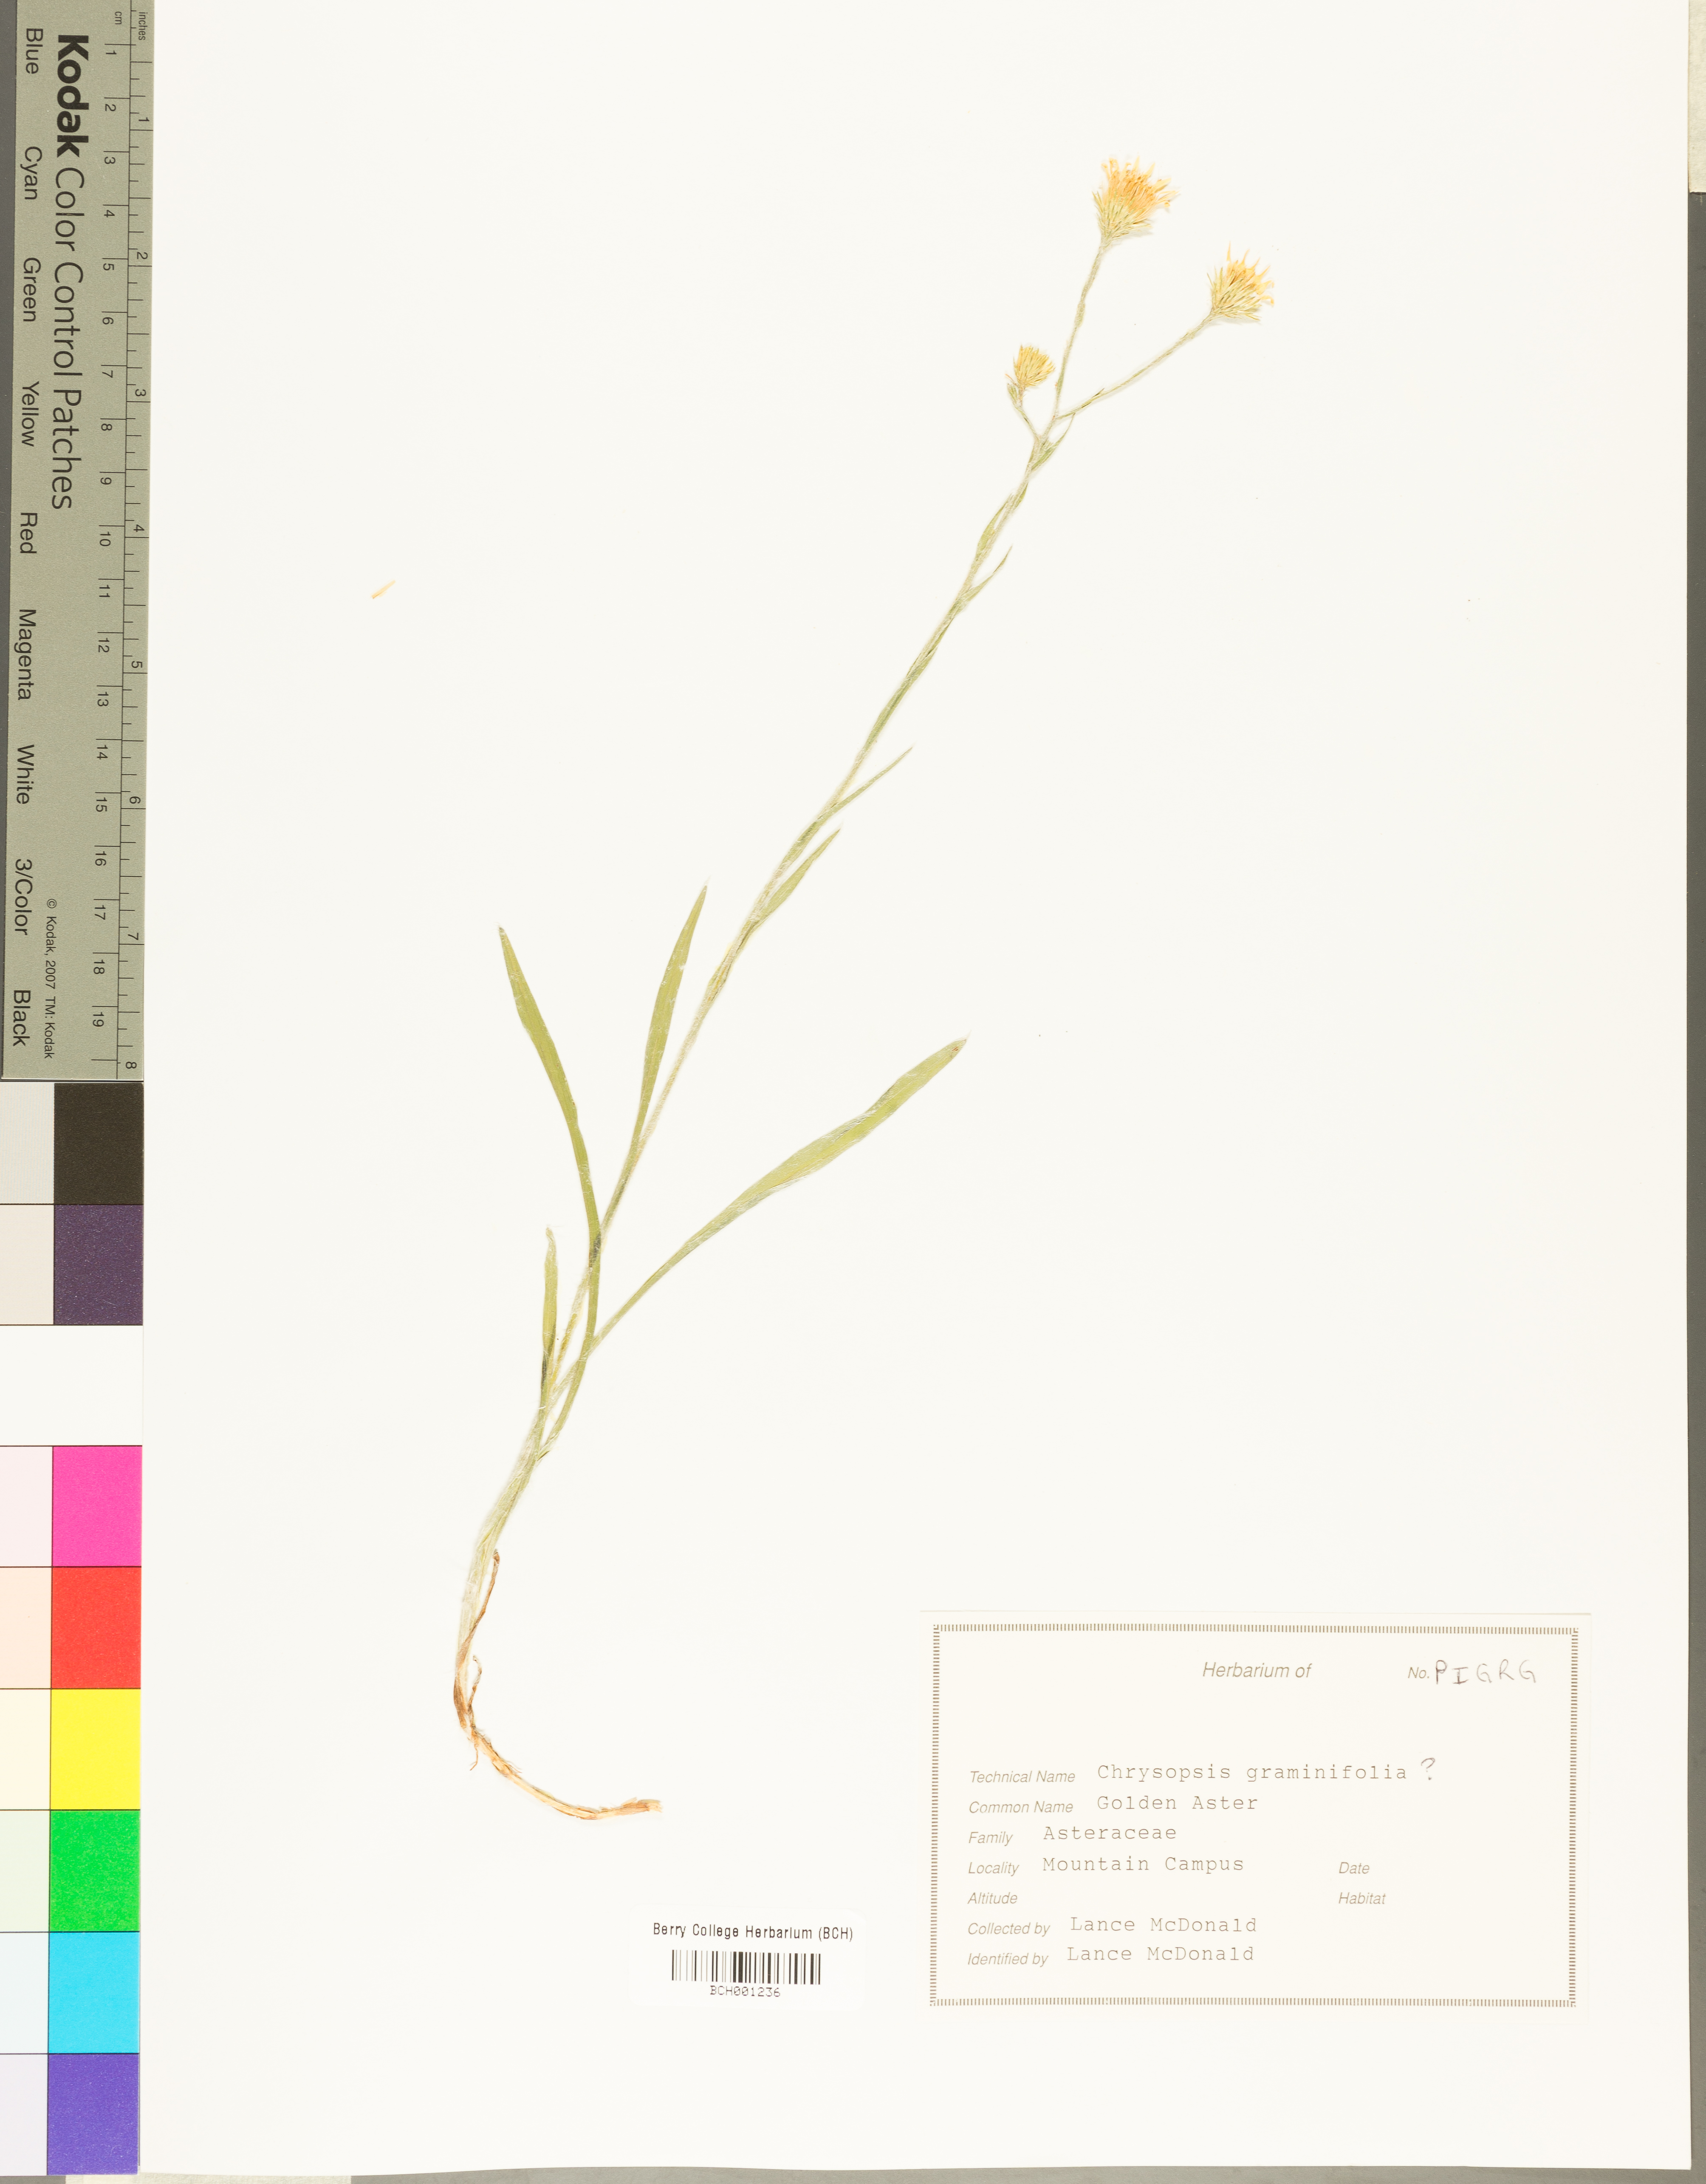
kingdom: Plantae
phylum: Tracheophyta
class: Magnoliopsida
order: Asterales
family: Asteraceae
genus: Pityopsis
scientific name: Pityopsis graminifolia
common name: Grass-leaf golden-aster
